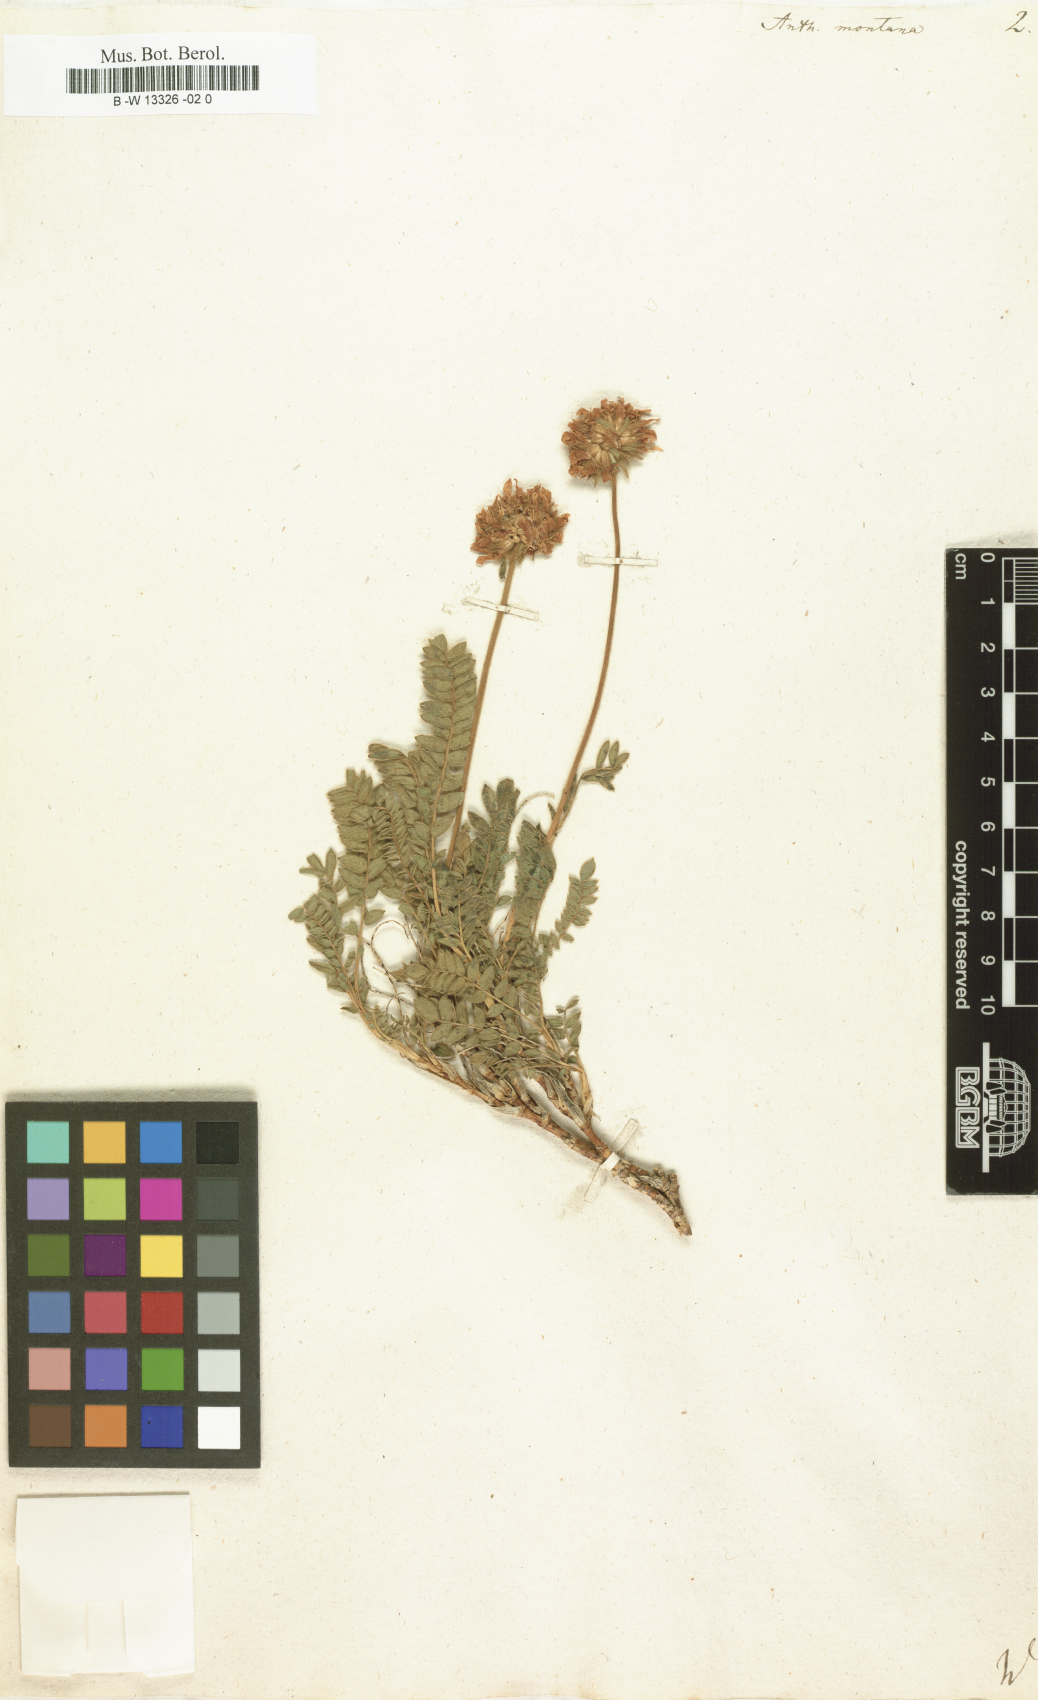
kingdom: Plantae
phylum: Tracheophyta
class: Magnoliopsida
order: Fabales
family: Fabaceae
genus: Anthyllis
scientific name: Anthyllis montana
